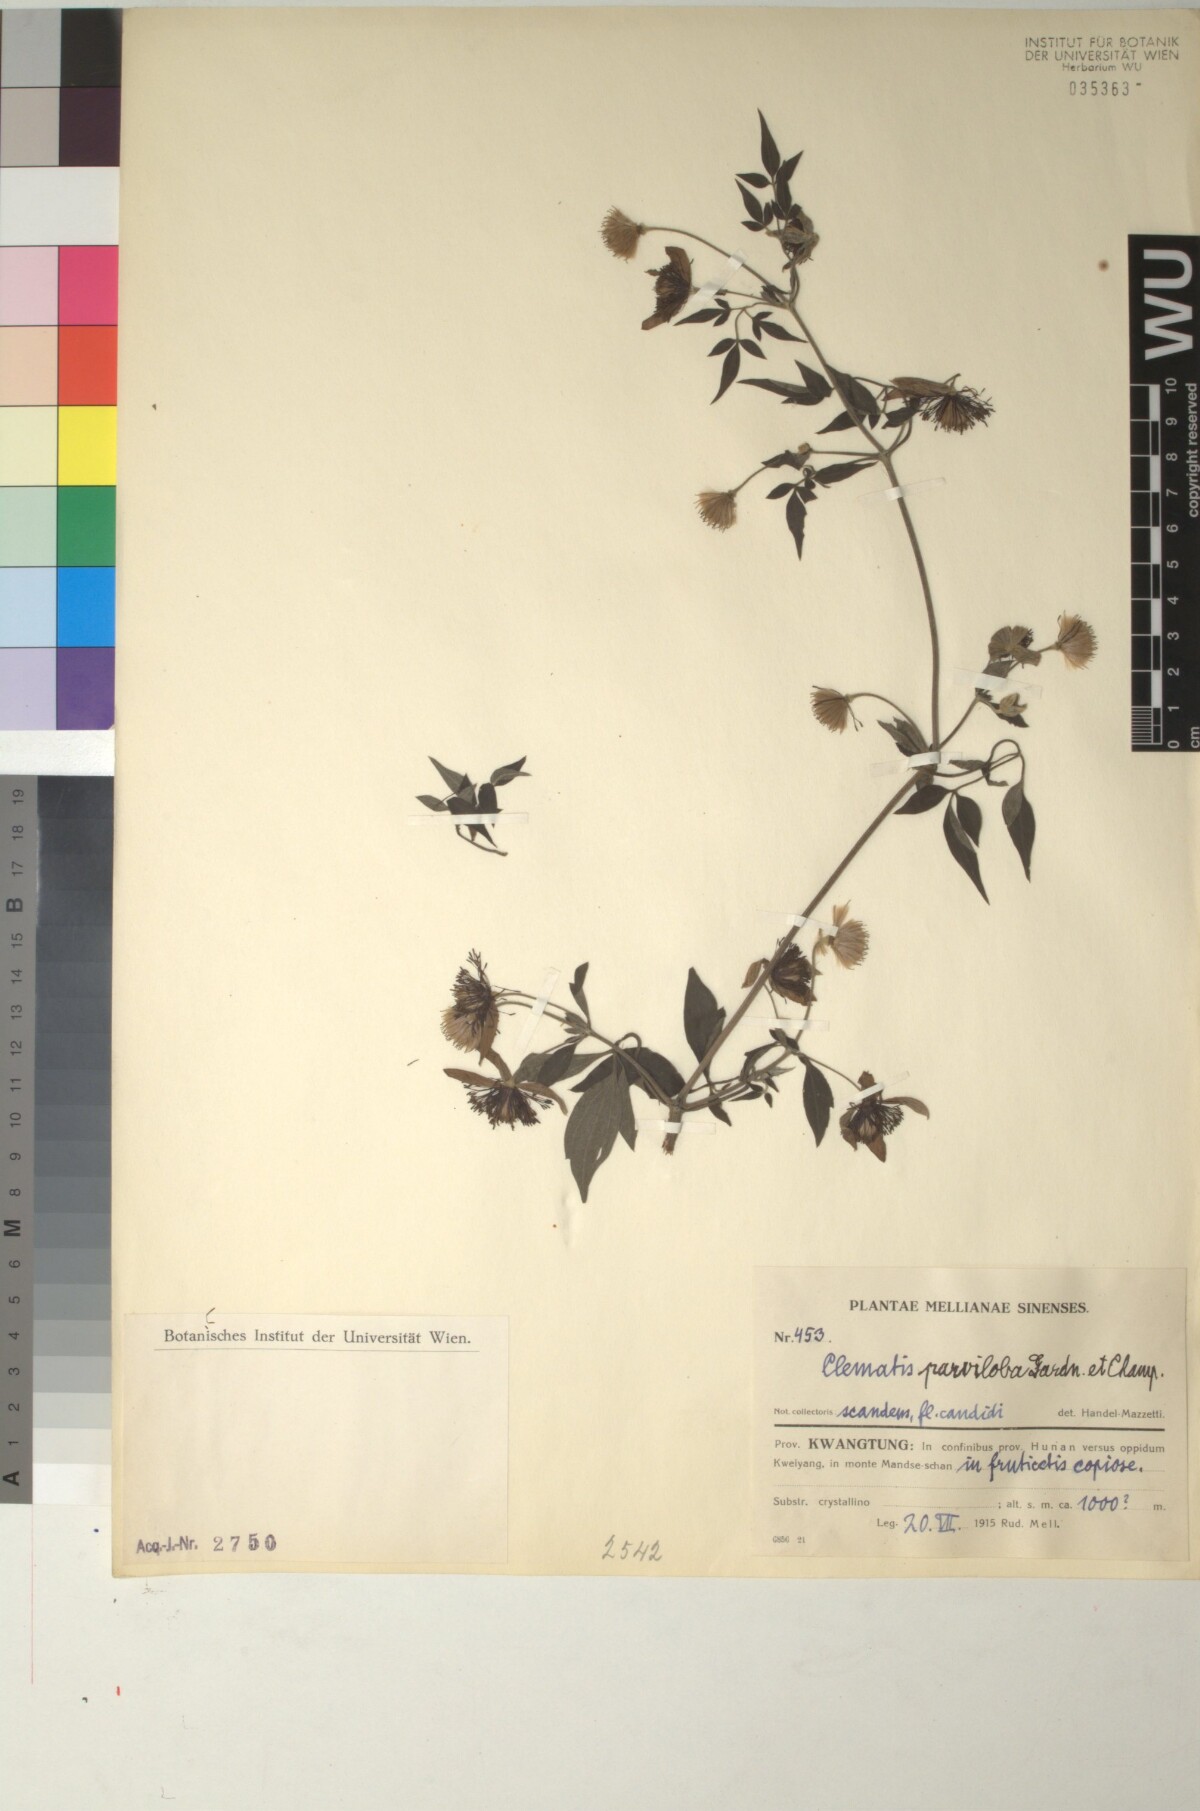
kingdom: Plantae
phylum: Tracheophyta
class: Magnoliopsida
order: Ranunculales
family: Ranunculaceae
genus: Clematis
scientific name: Clematis parviloba
